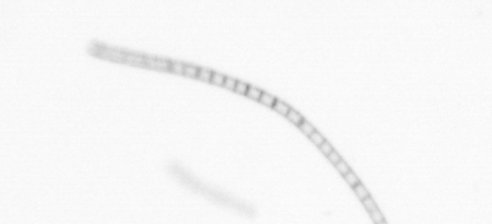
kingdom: Chromista
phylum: Ochrophyta
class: Bacillariophyceae
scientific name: Bacillariophyceae
